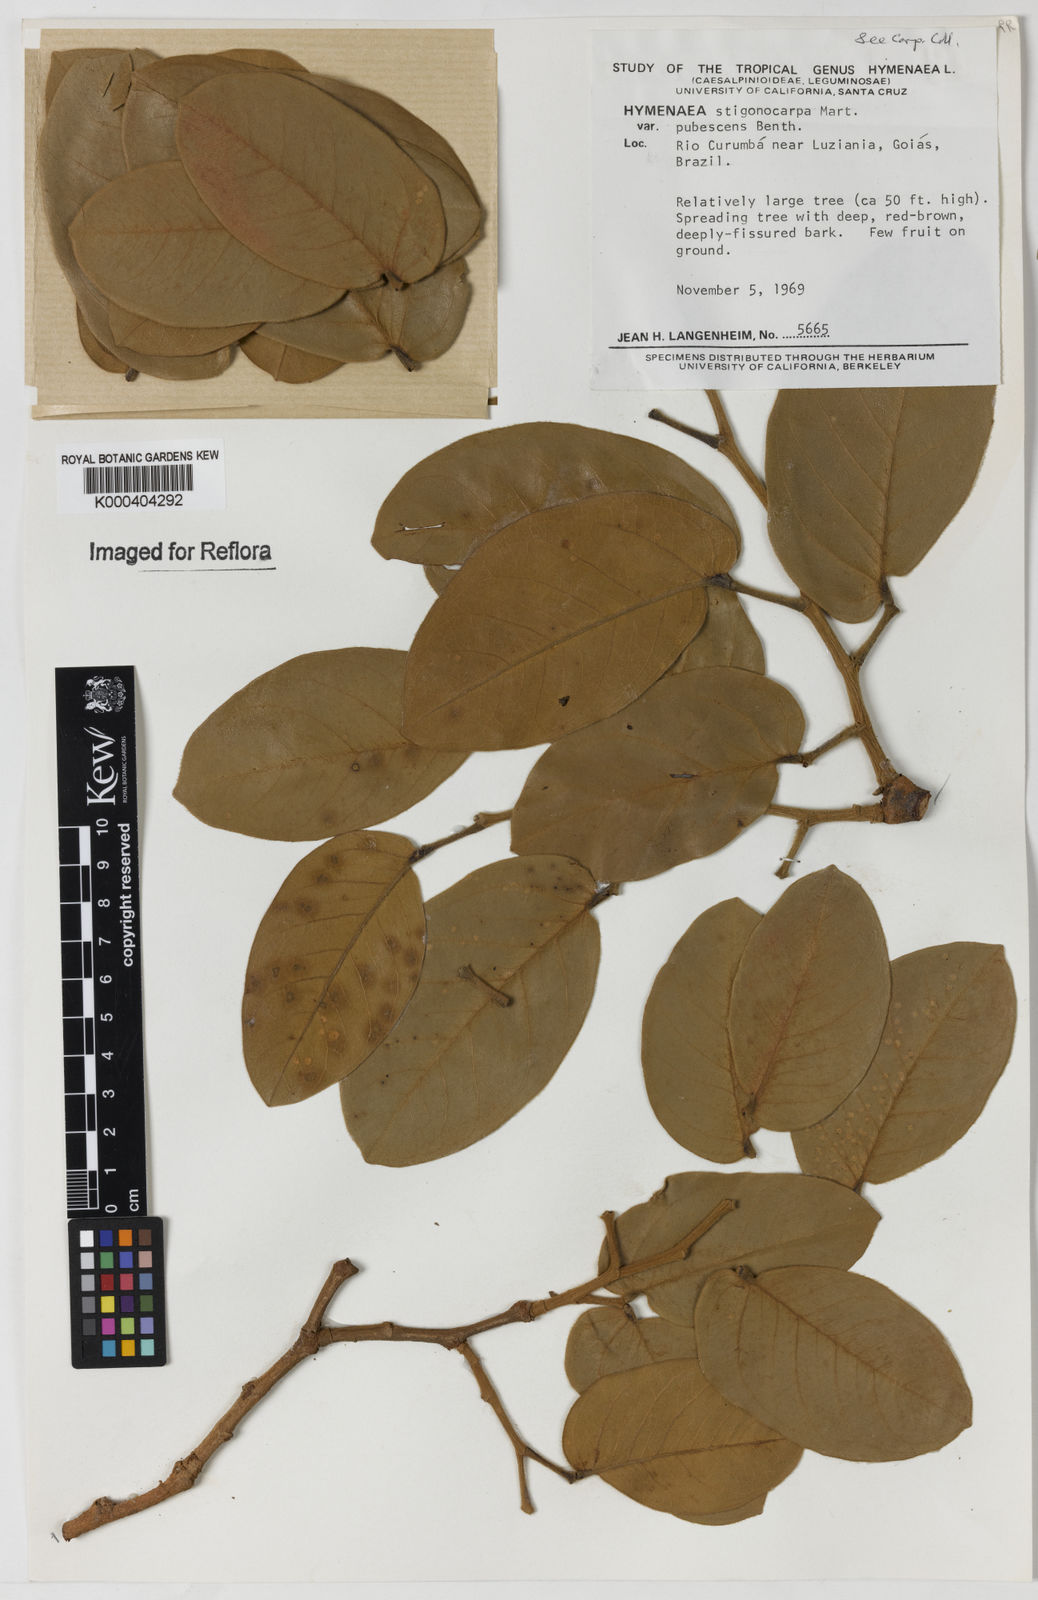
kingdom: Plantae
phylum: Tracheophyta
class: Magnoliopsida
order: Fabales
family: Fabaceae
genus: Hymenaea
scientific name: Hymenaea stigonocarpa
